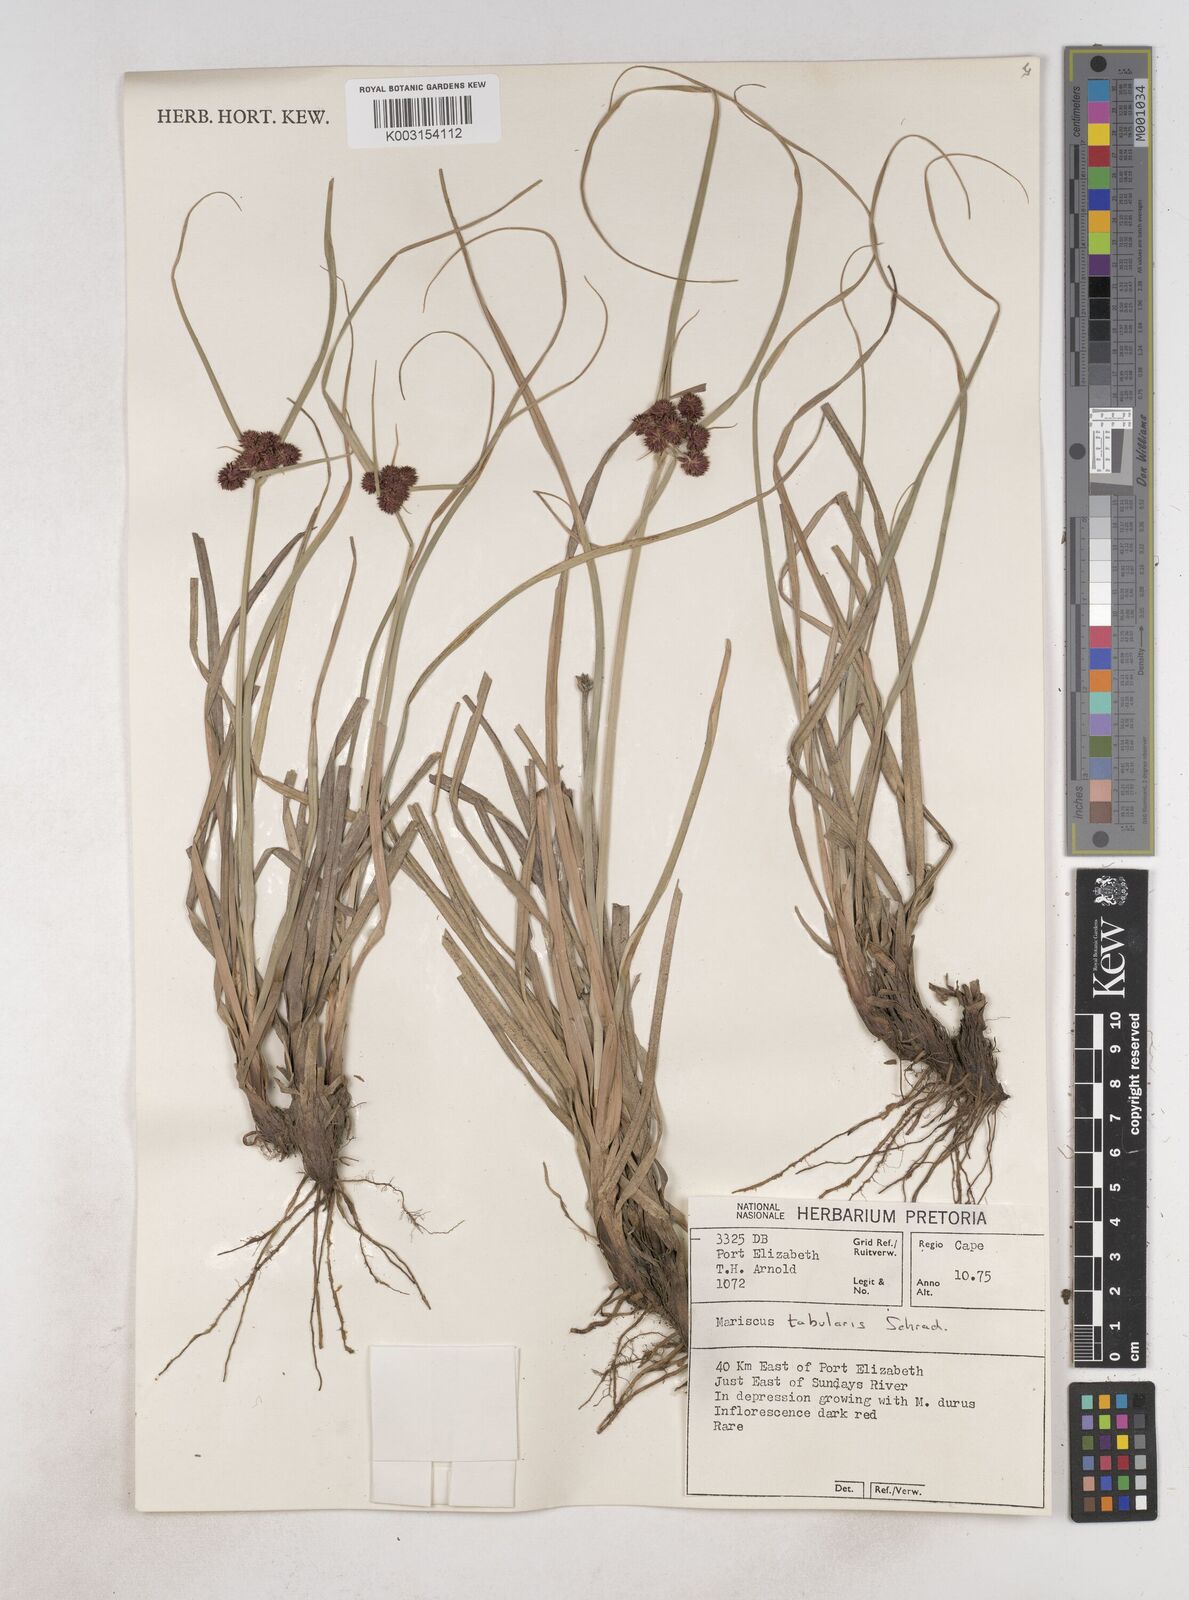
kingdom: Plantae
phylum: Tracheophyta
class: Liliopsida
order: Poales
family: Cyperaceae
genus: Cyperus
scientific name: Cyperus tabularis
